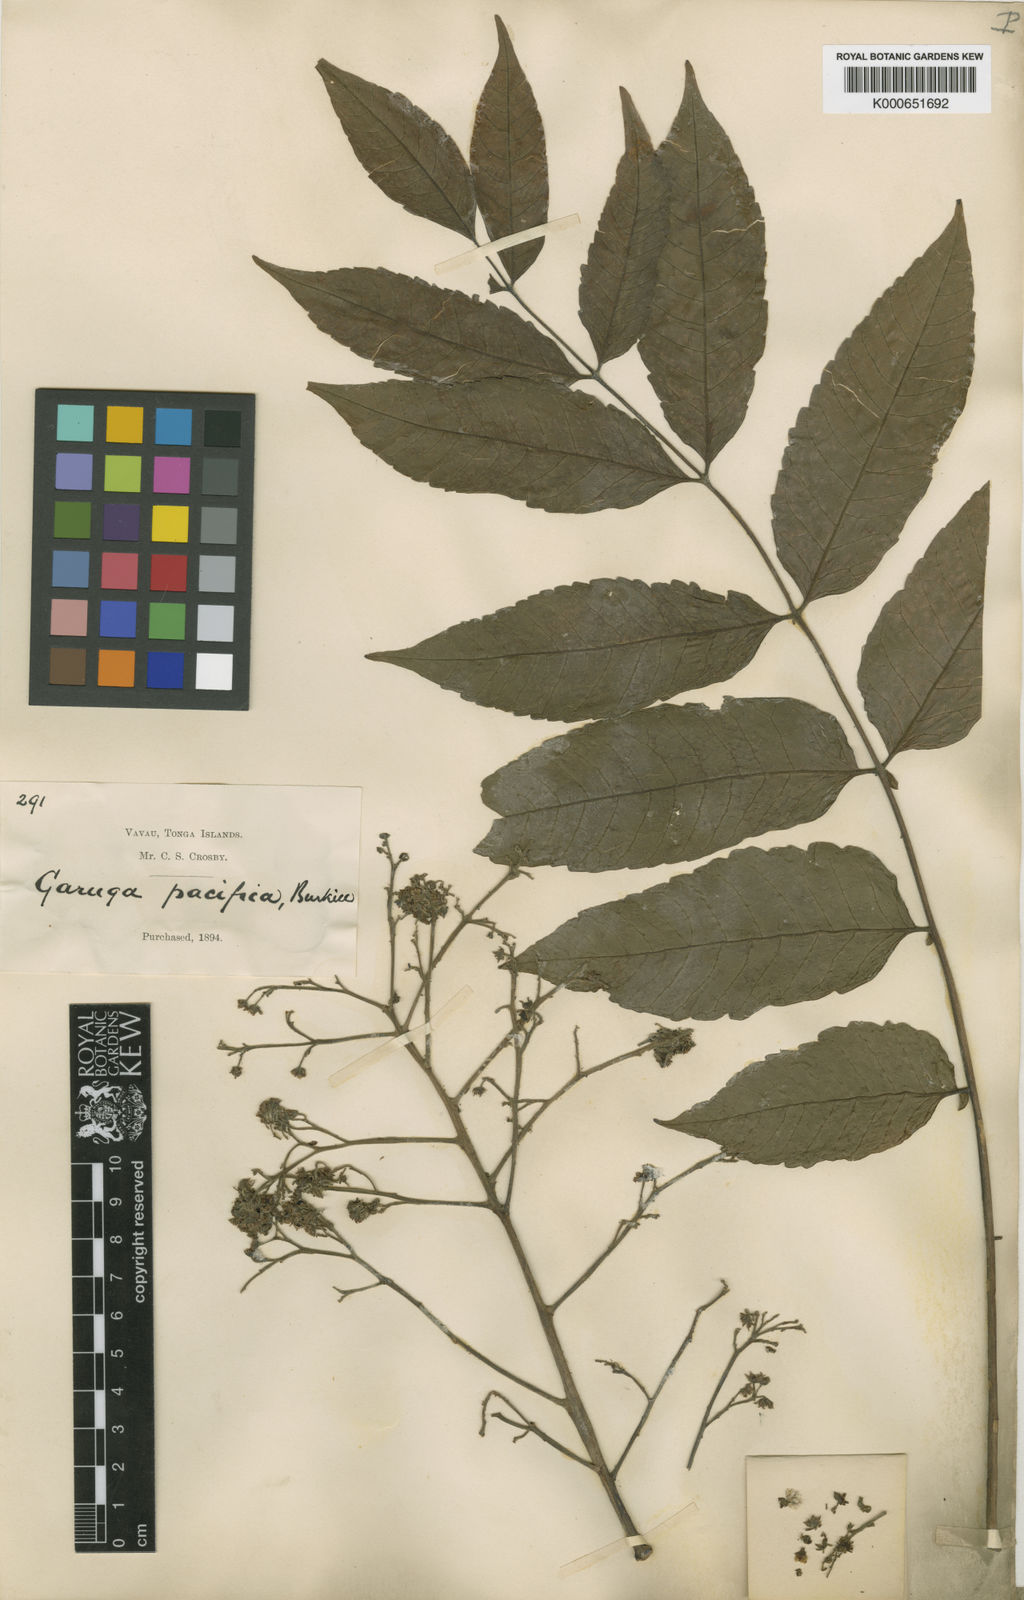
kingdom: Plantae
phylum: Tracheophyta
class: Magnoliopsida
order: Sapindales
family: Burseraceae
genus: Garuga
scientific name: Garuga floribunda
